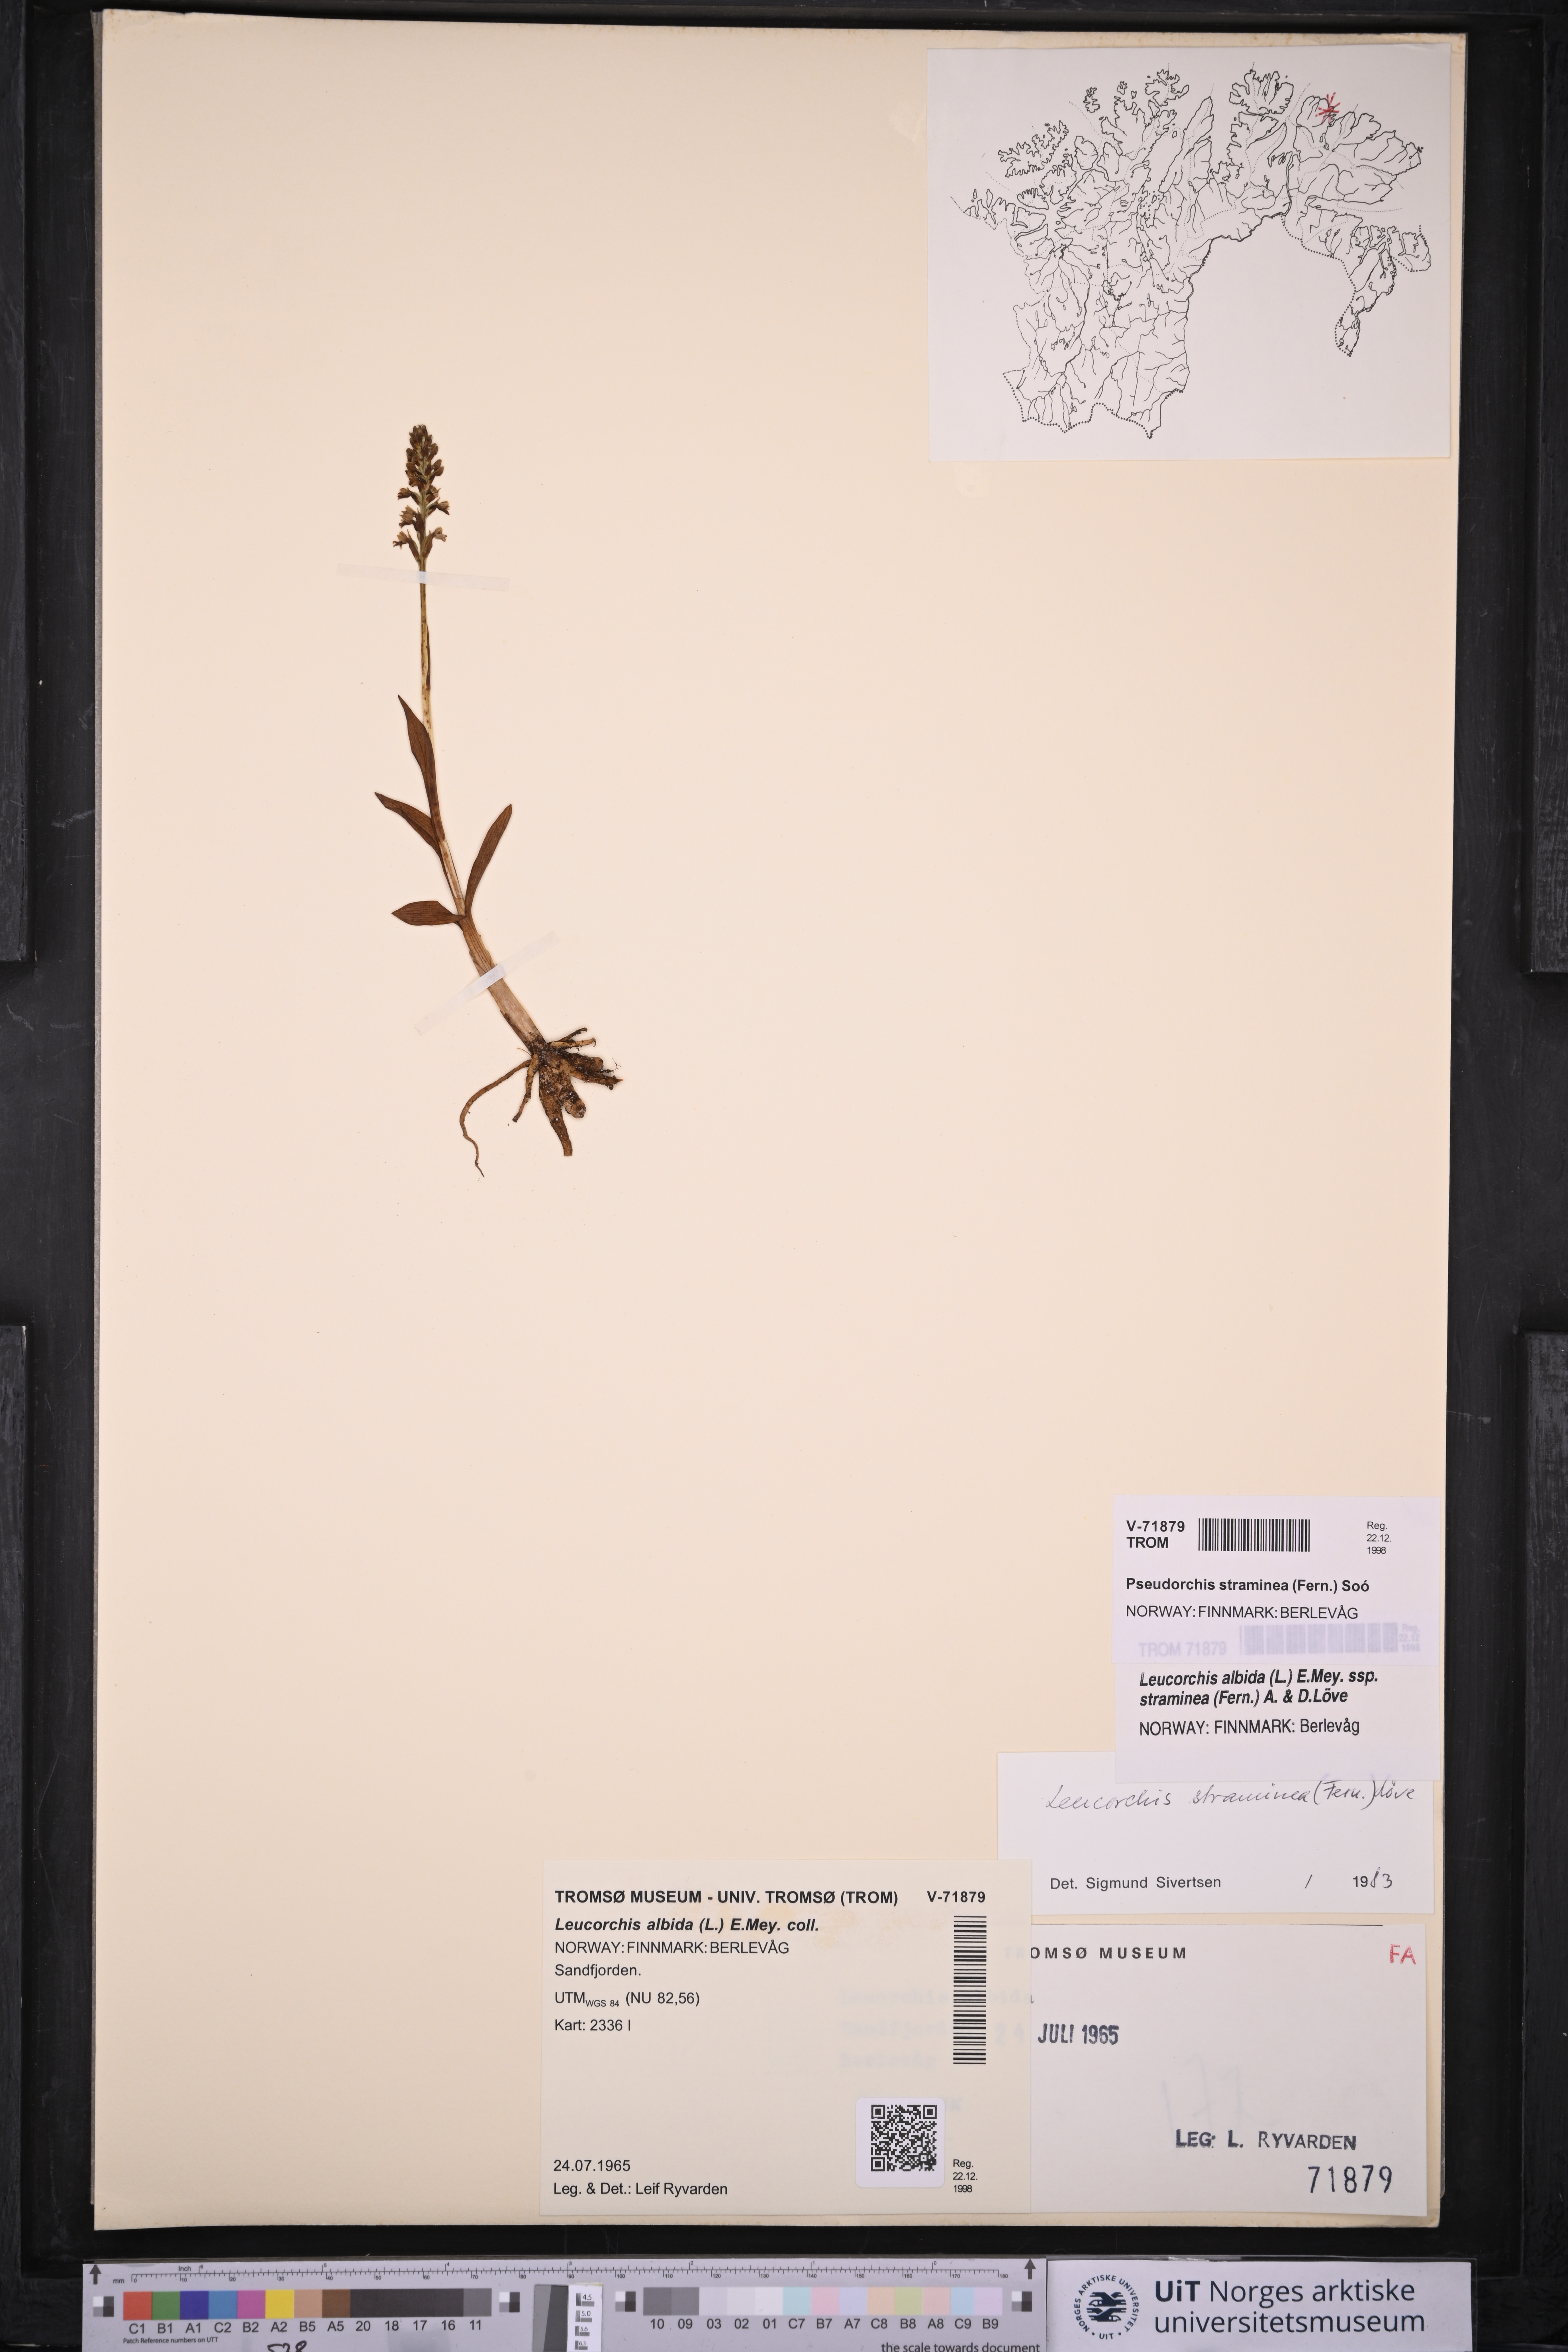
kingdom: Plantae
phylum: Tracheophyta
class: Liliopsida
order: Asparagales
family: Orchidaceae
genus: Pseudorchis
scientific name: Pseudorchis straminea
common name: Vanilla-scented bog orchid
